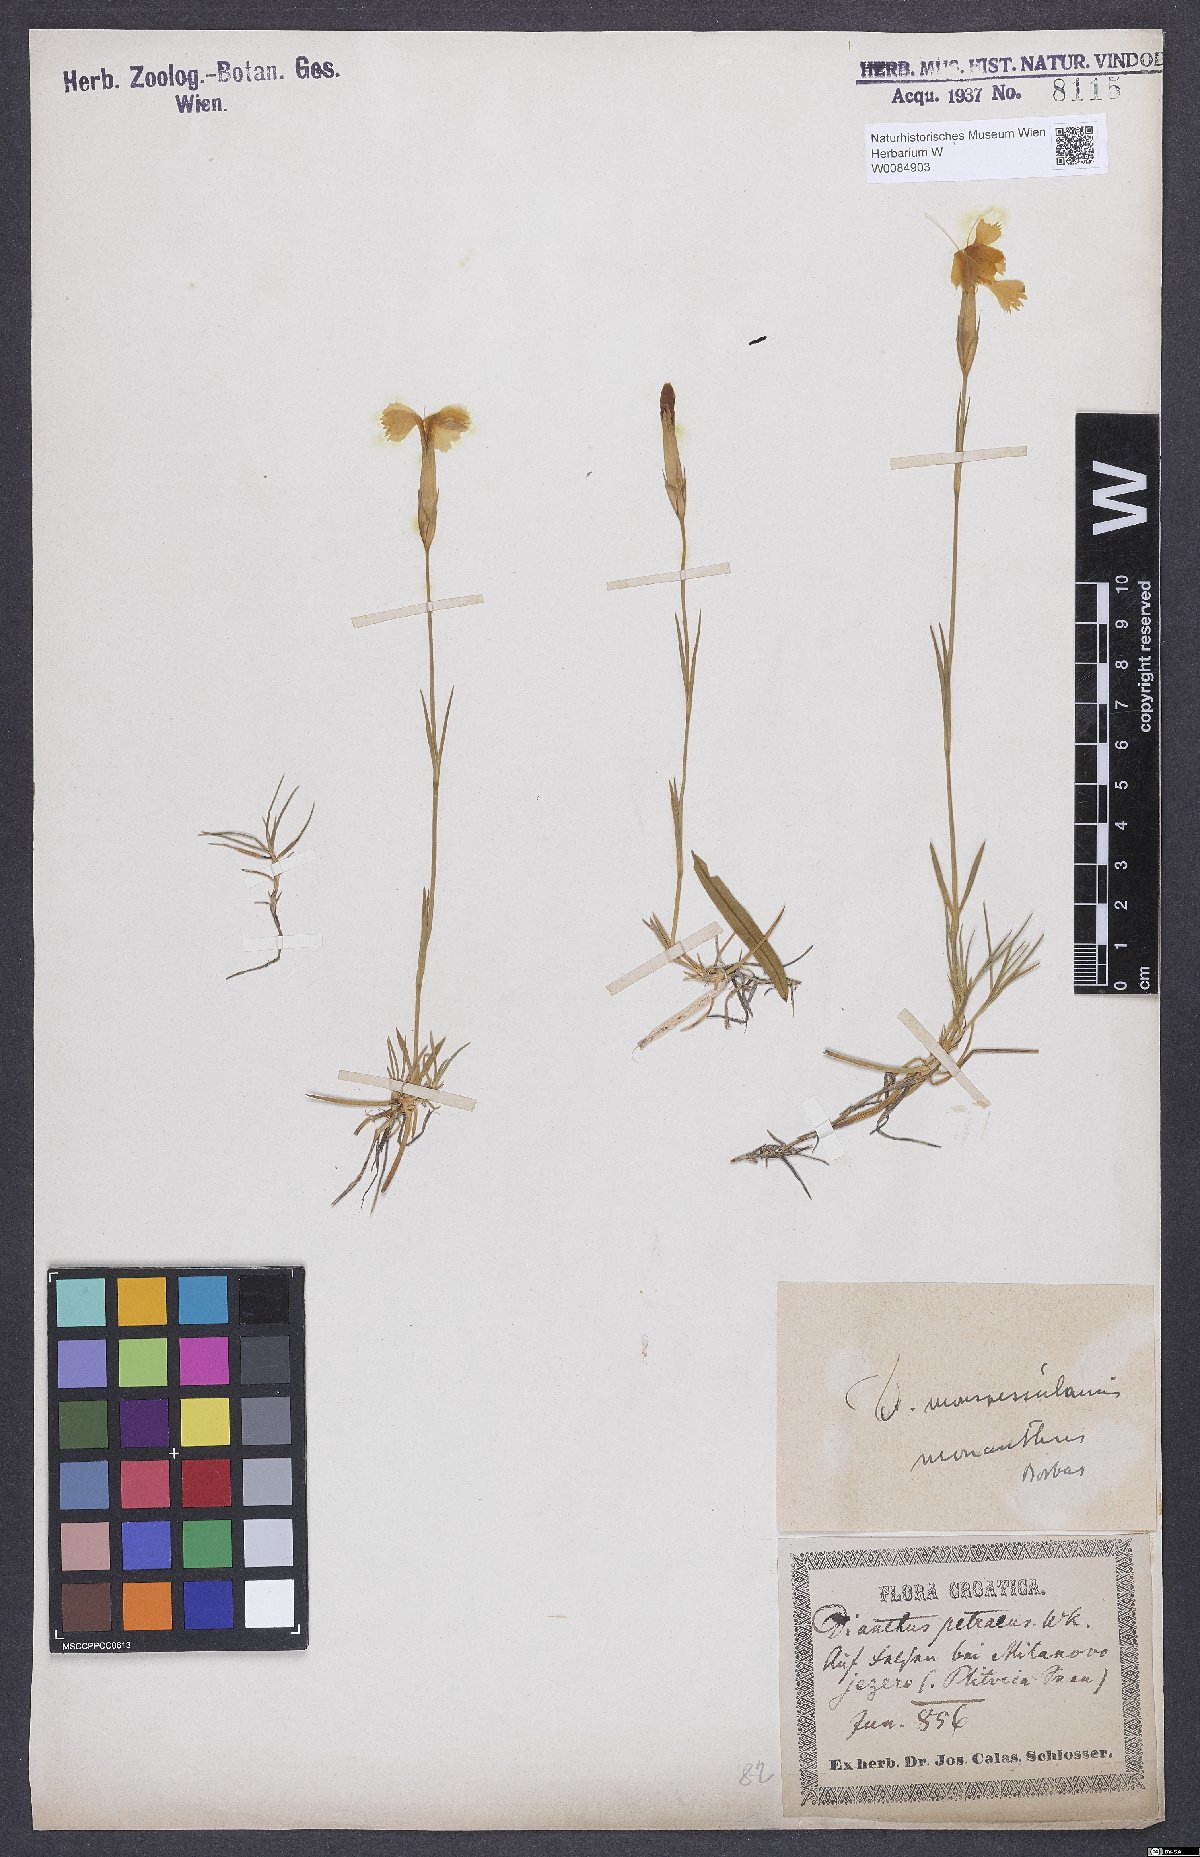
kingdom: Plantae
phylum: Tracheophyta
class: Magnoliopsida
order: Caryophyllales
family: Caryophyllaceae
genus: Dianthus
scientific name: Dianthus hyssopifolius
